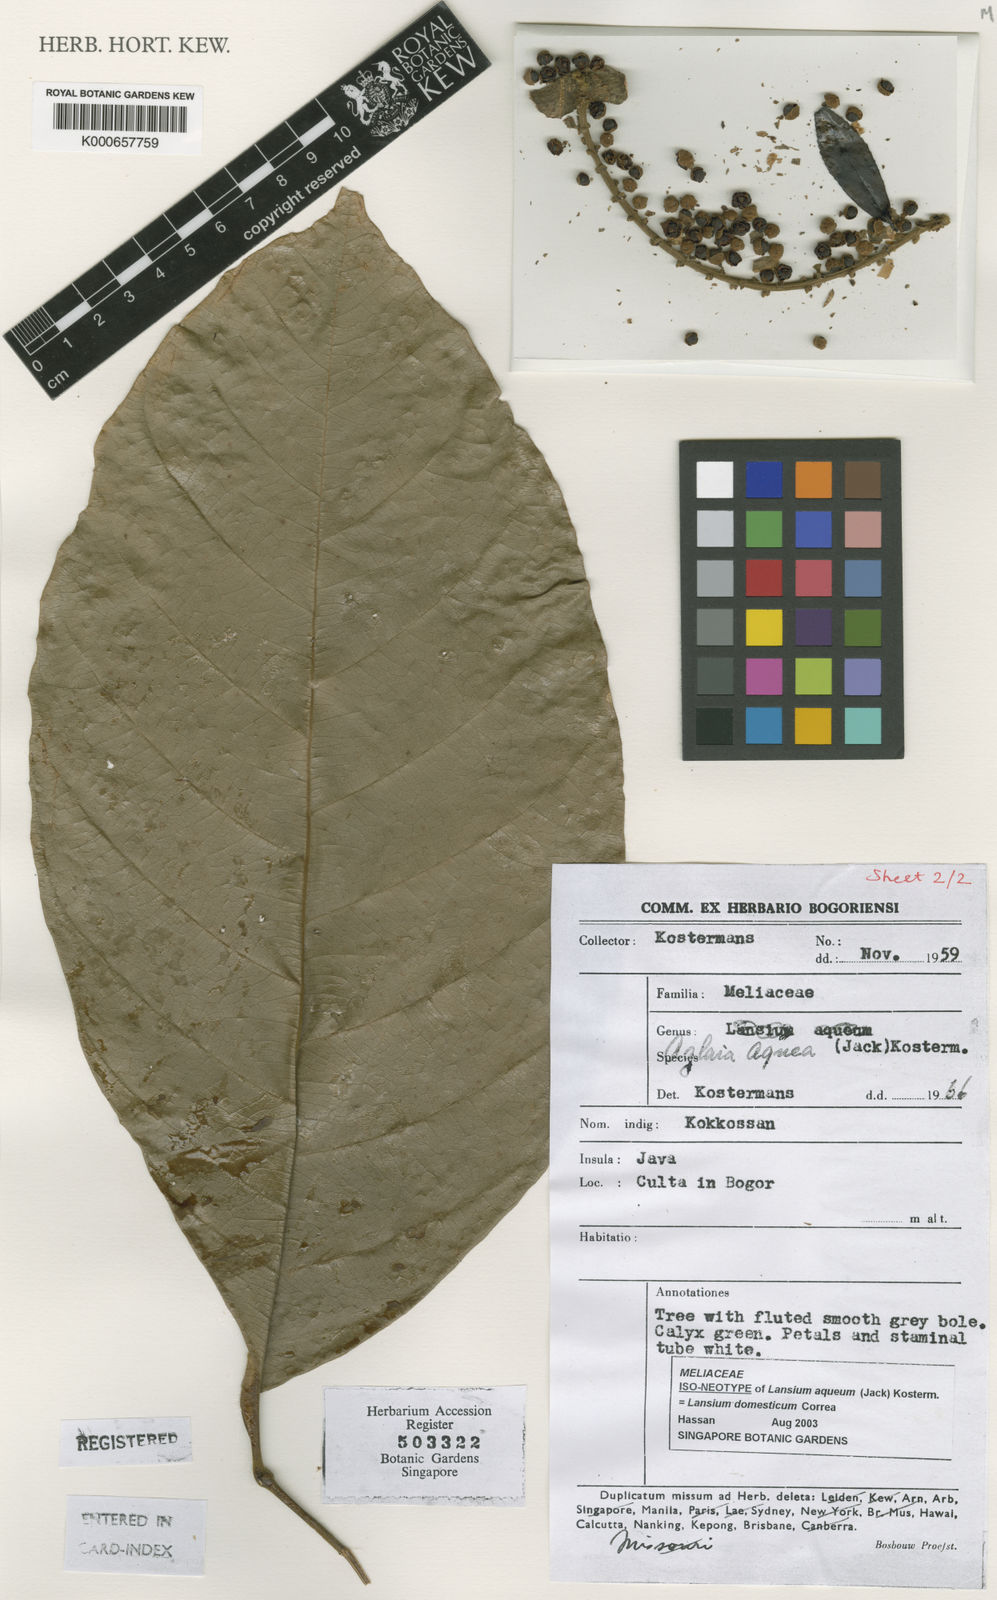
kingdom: Plantae
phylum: Tracheophyta
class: Magnoliopsida
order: Sapindales
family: Meliaceae
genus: Lansium
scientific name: Lansium
